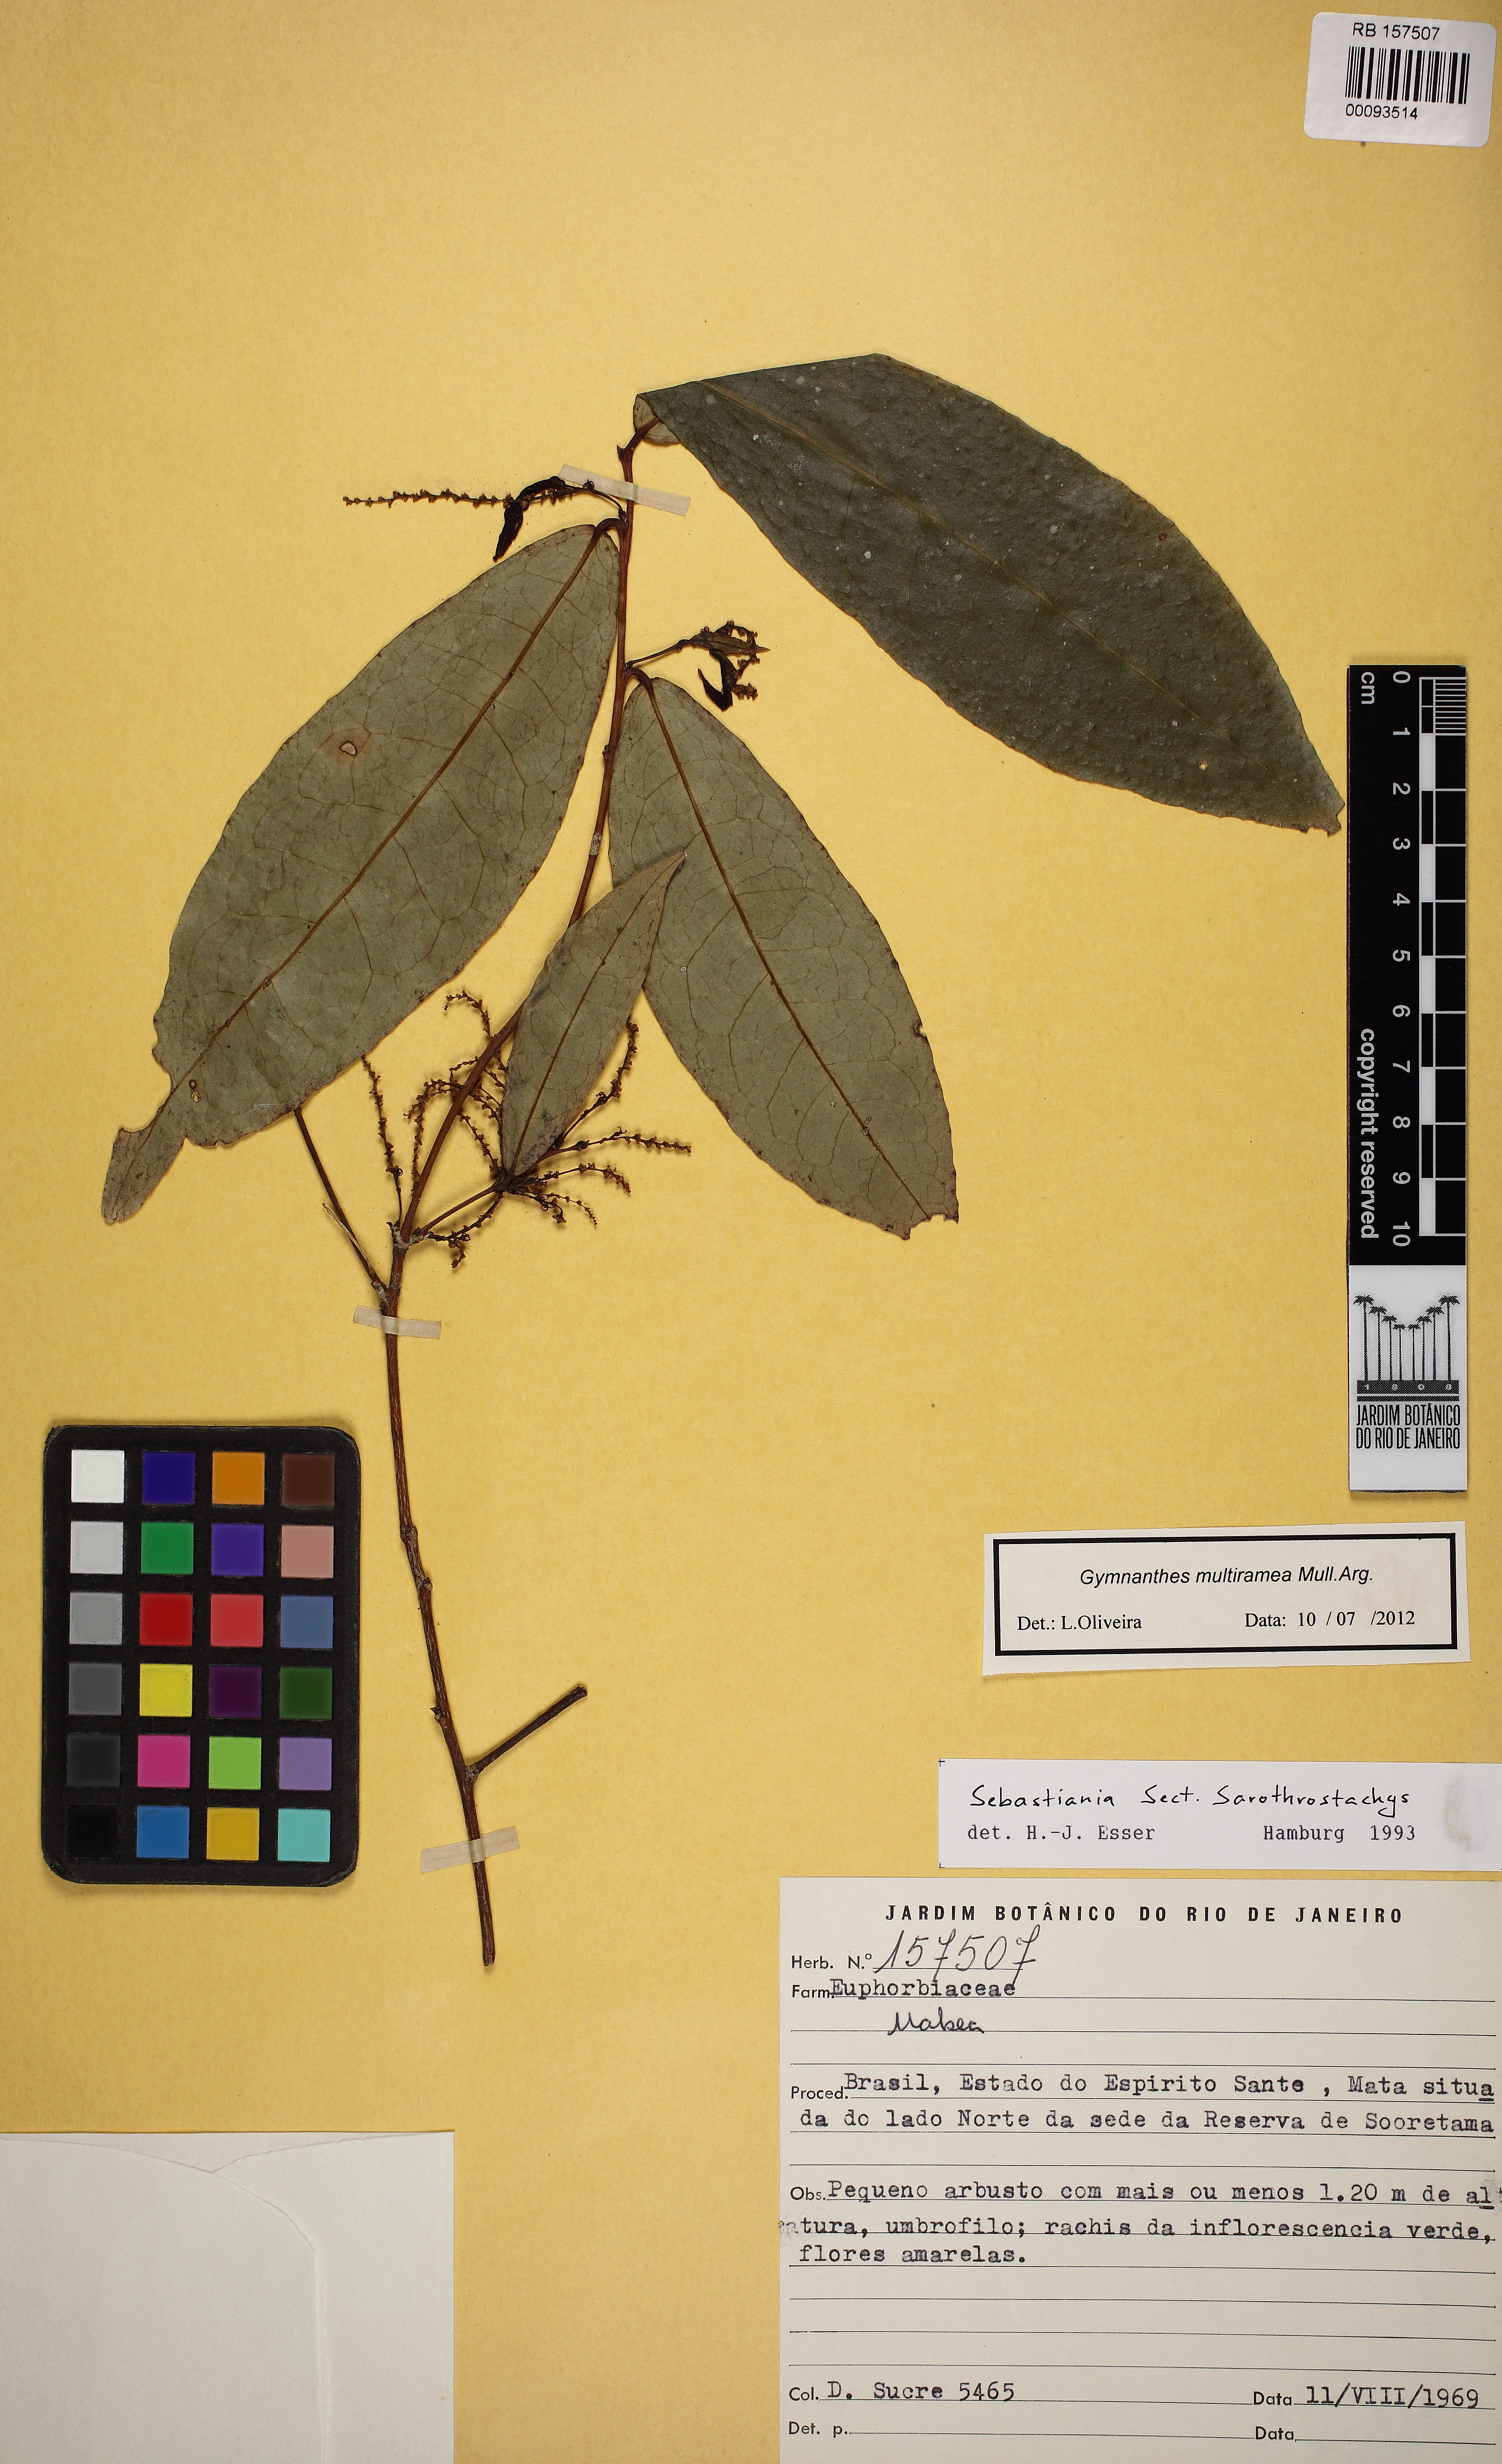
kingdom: Plantae
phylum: Tracheophyta
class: Magnoliopsida
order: Malpighiales
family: Euphorbiaceae
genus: Gymnanthes
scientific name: Gymnanthes glabrata
